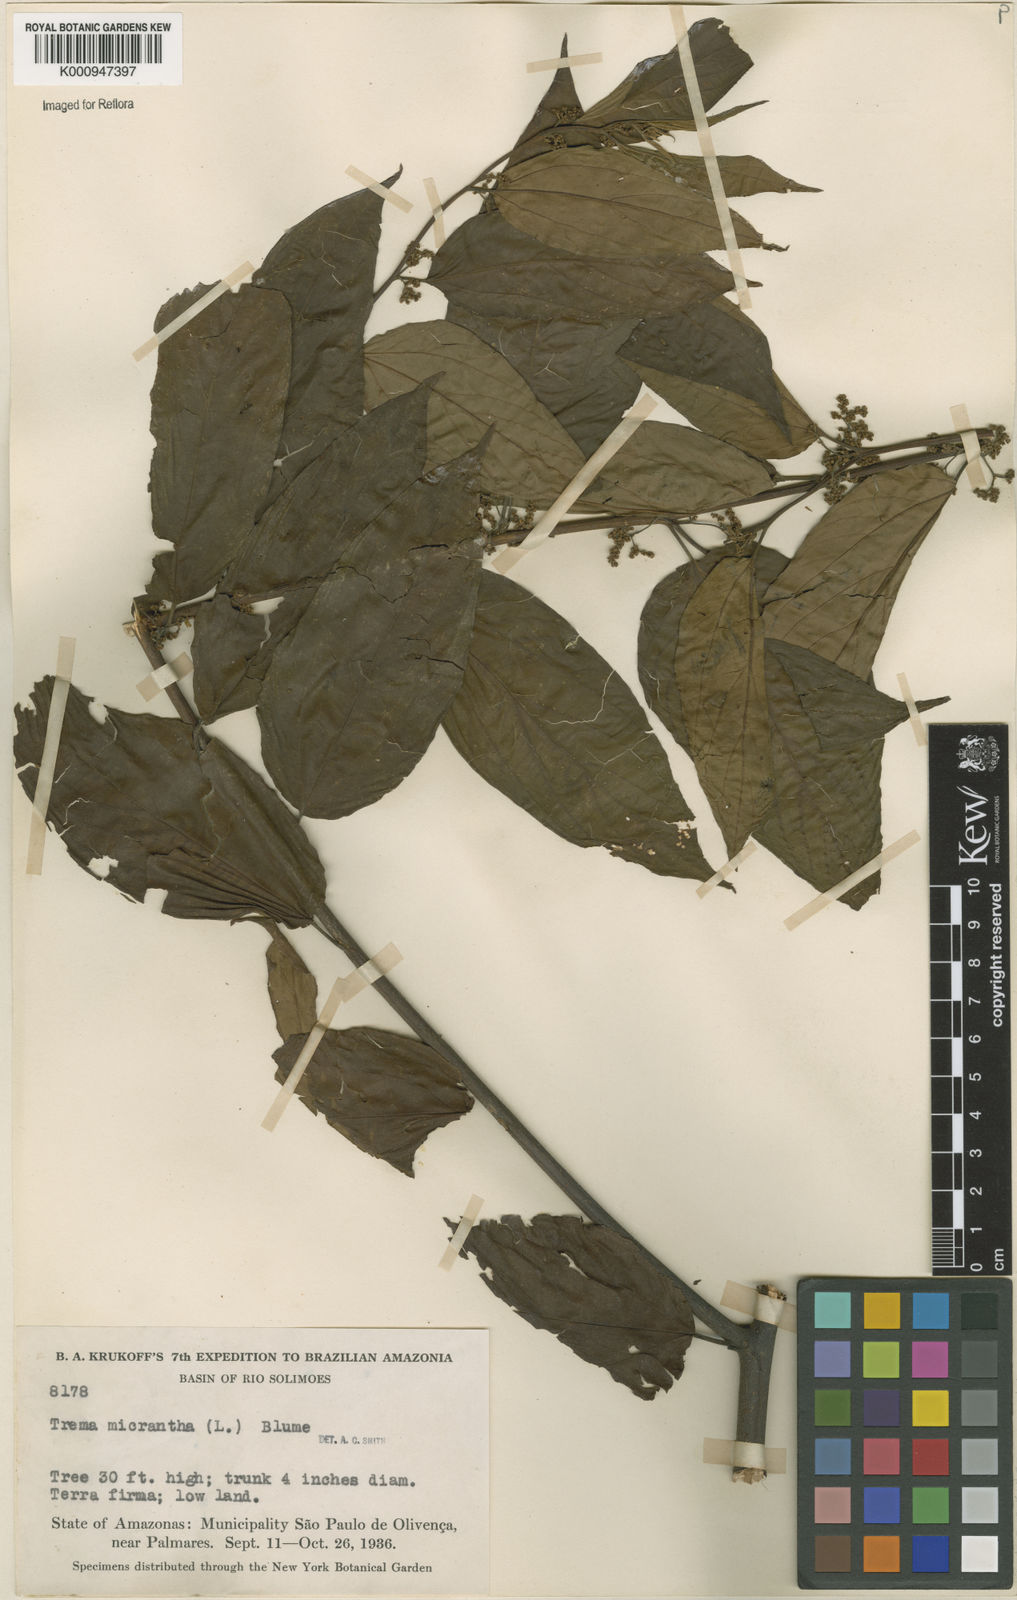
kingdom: Plantae
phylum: Tracheophyta
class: Magnoliopsida
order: Rosales
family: Cannabaceae
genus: Trema
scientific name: Trema micranthum
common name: Jamaican nettletree
